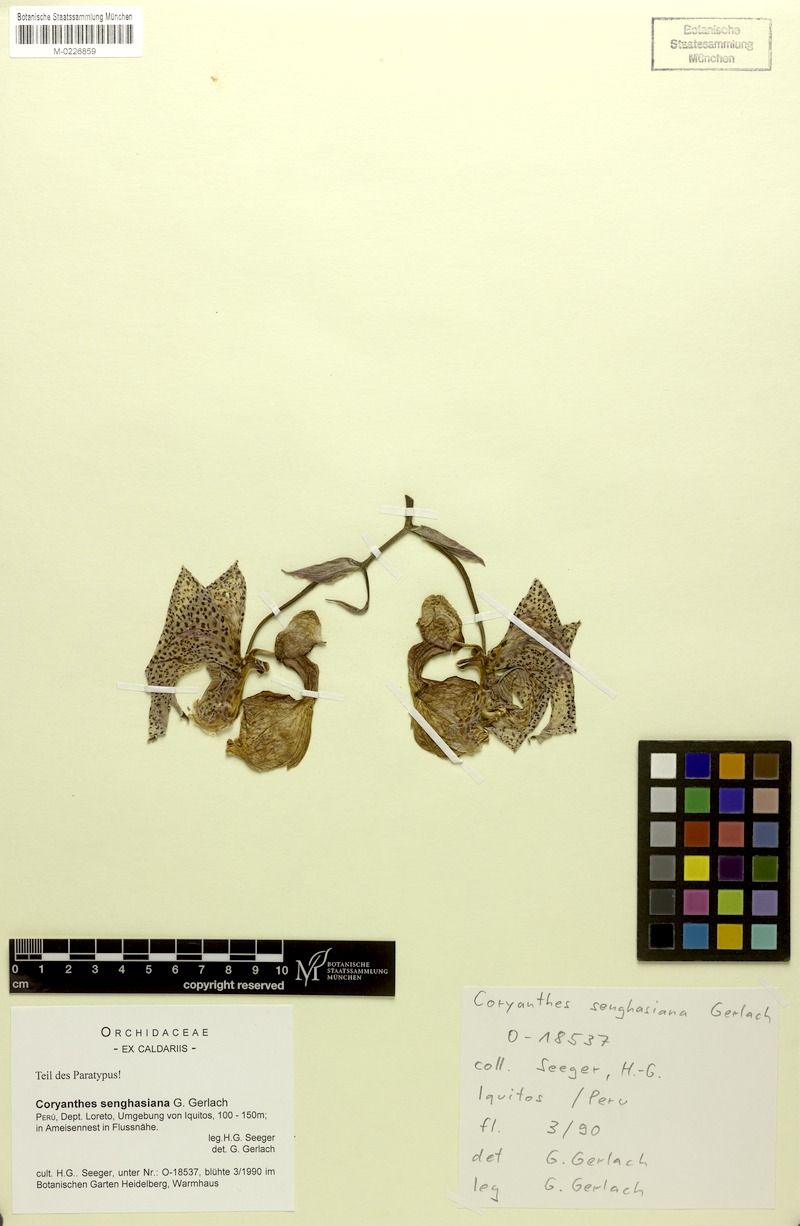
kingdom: Plantae
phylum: Tracheophyta
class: Liliopsida
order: Asparagales
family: Orchidaceae
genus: Coryanthes
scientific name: Coryanthes senghasiana
